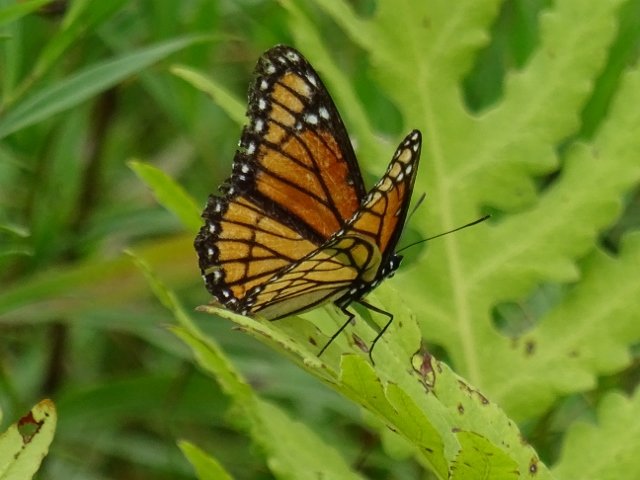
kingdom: Animalia
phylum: Arthropoda
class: Insecta
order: Lepidoptera
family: Nymphalidae
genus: Limenitis
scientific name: Limenitis archippus
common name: Viceroy
